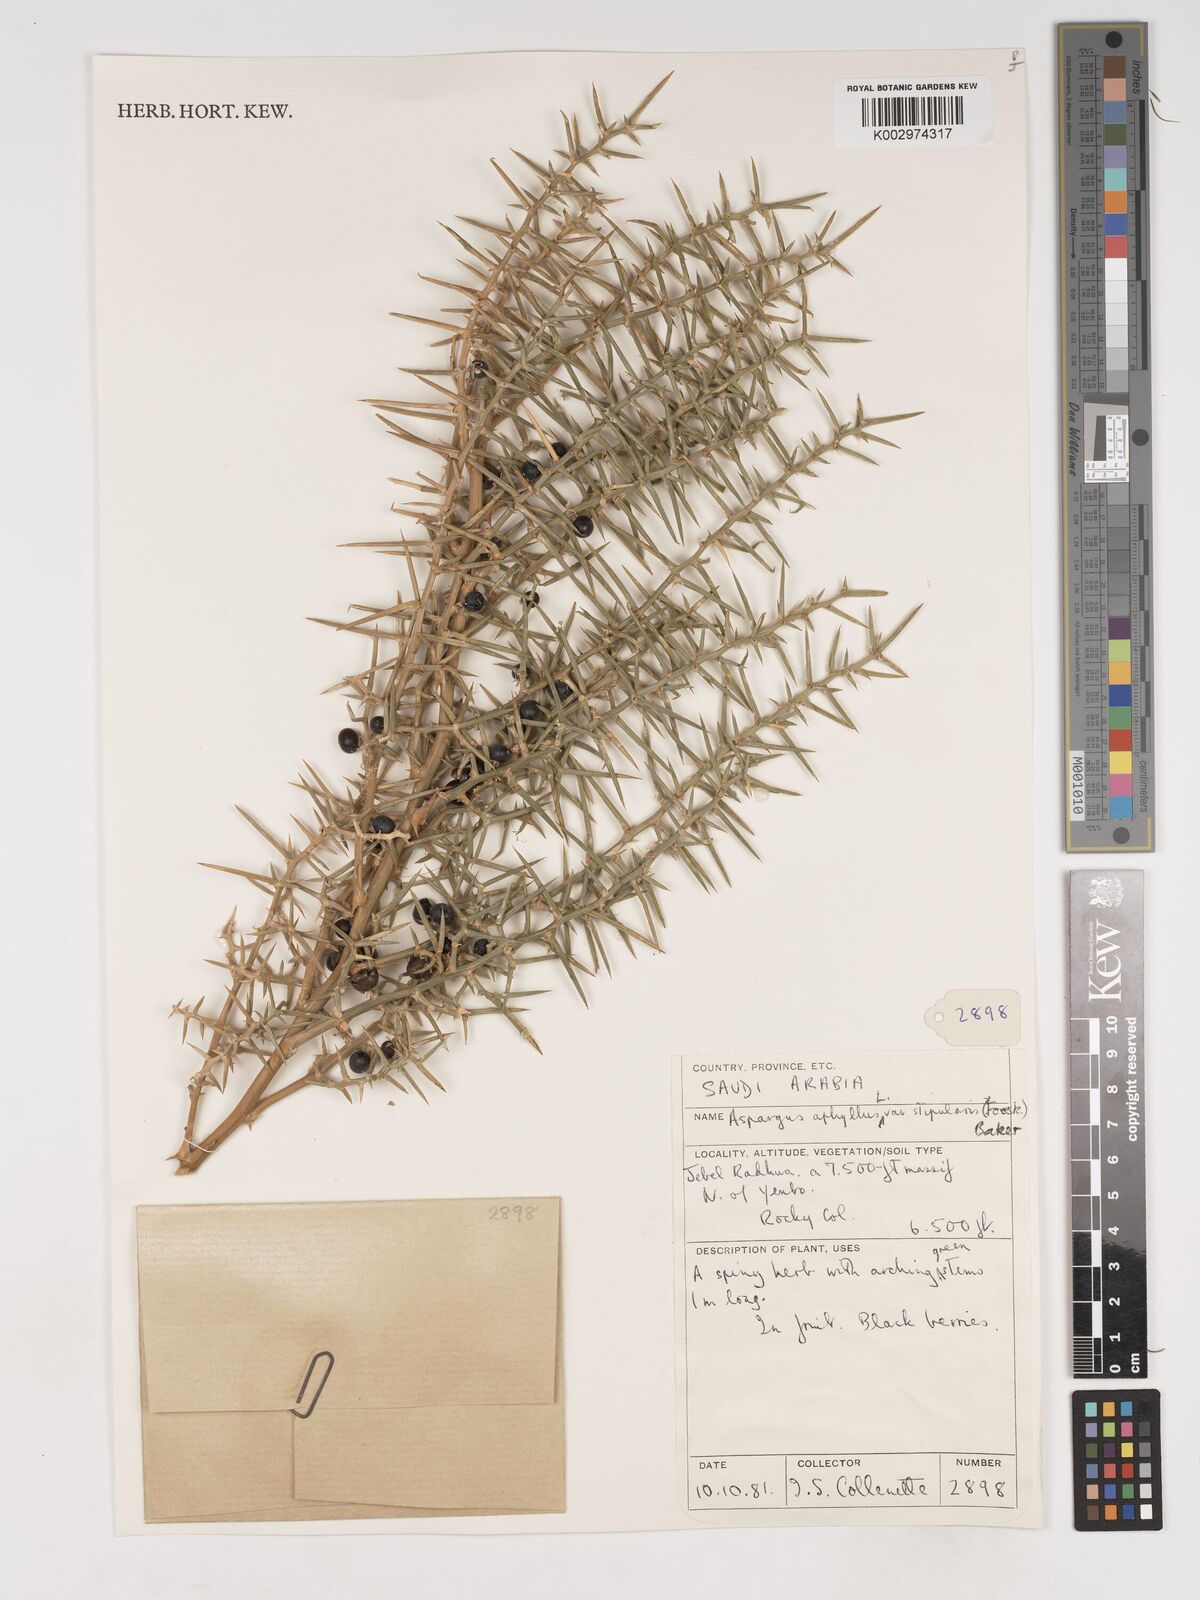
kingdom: Plantae
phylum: Tracheophyta
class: Liliopsida
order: Asparagales
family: Asparagaceae
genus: Asparagus
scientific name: Asparagus aphyllus
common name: Mediterranean asparagus
